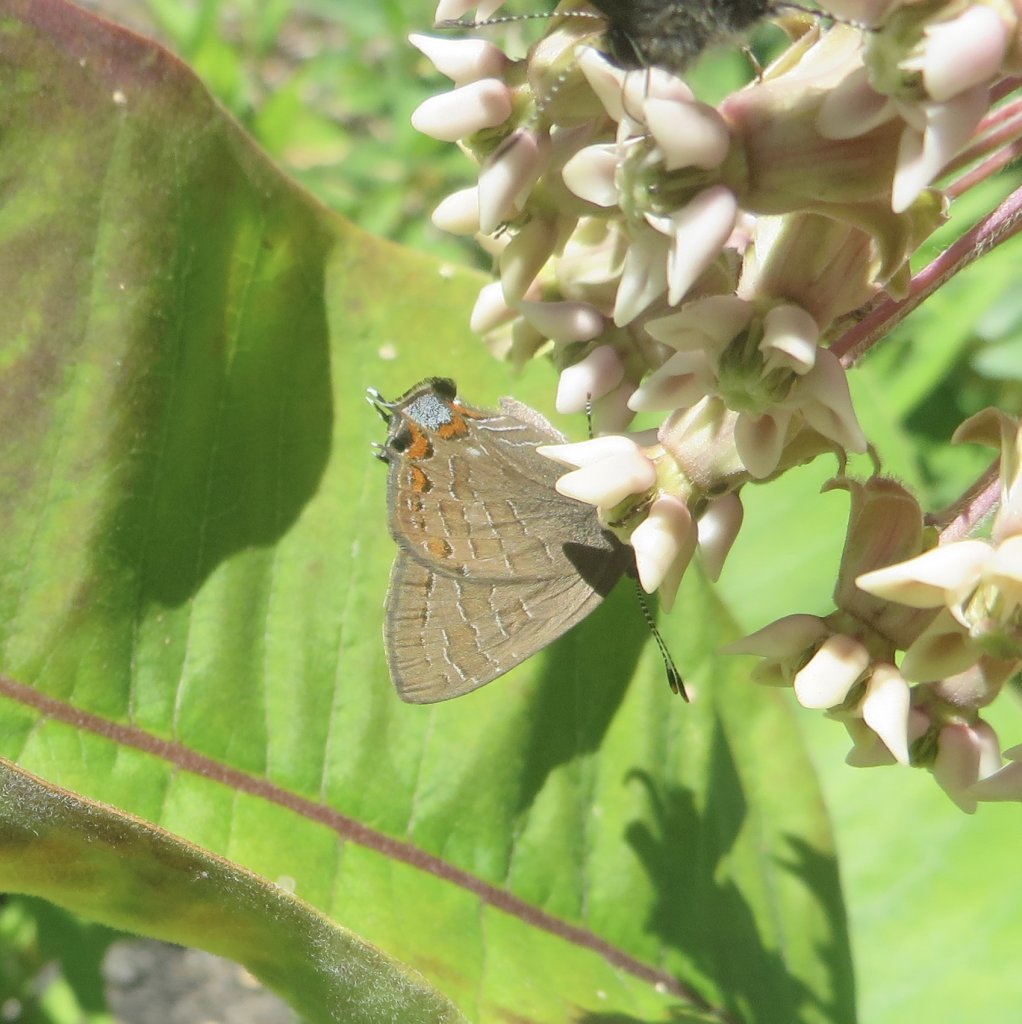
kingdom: Animalia
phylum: Arthropoda
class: Insecta
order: Lepidoptera
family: Lycaenidae
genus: Satyrium
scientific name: Satyrium liparops
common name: Striped Hairstreak
